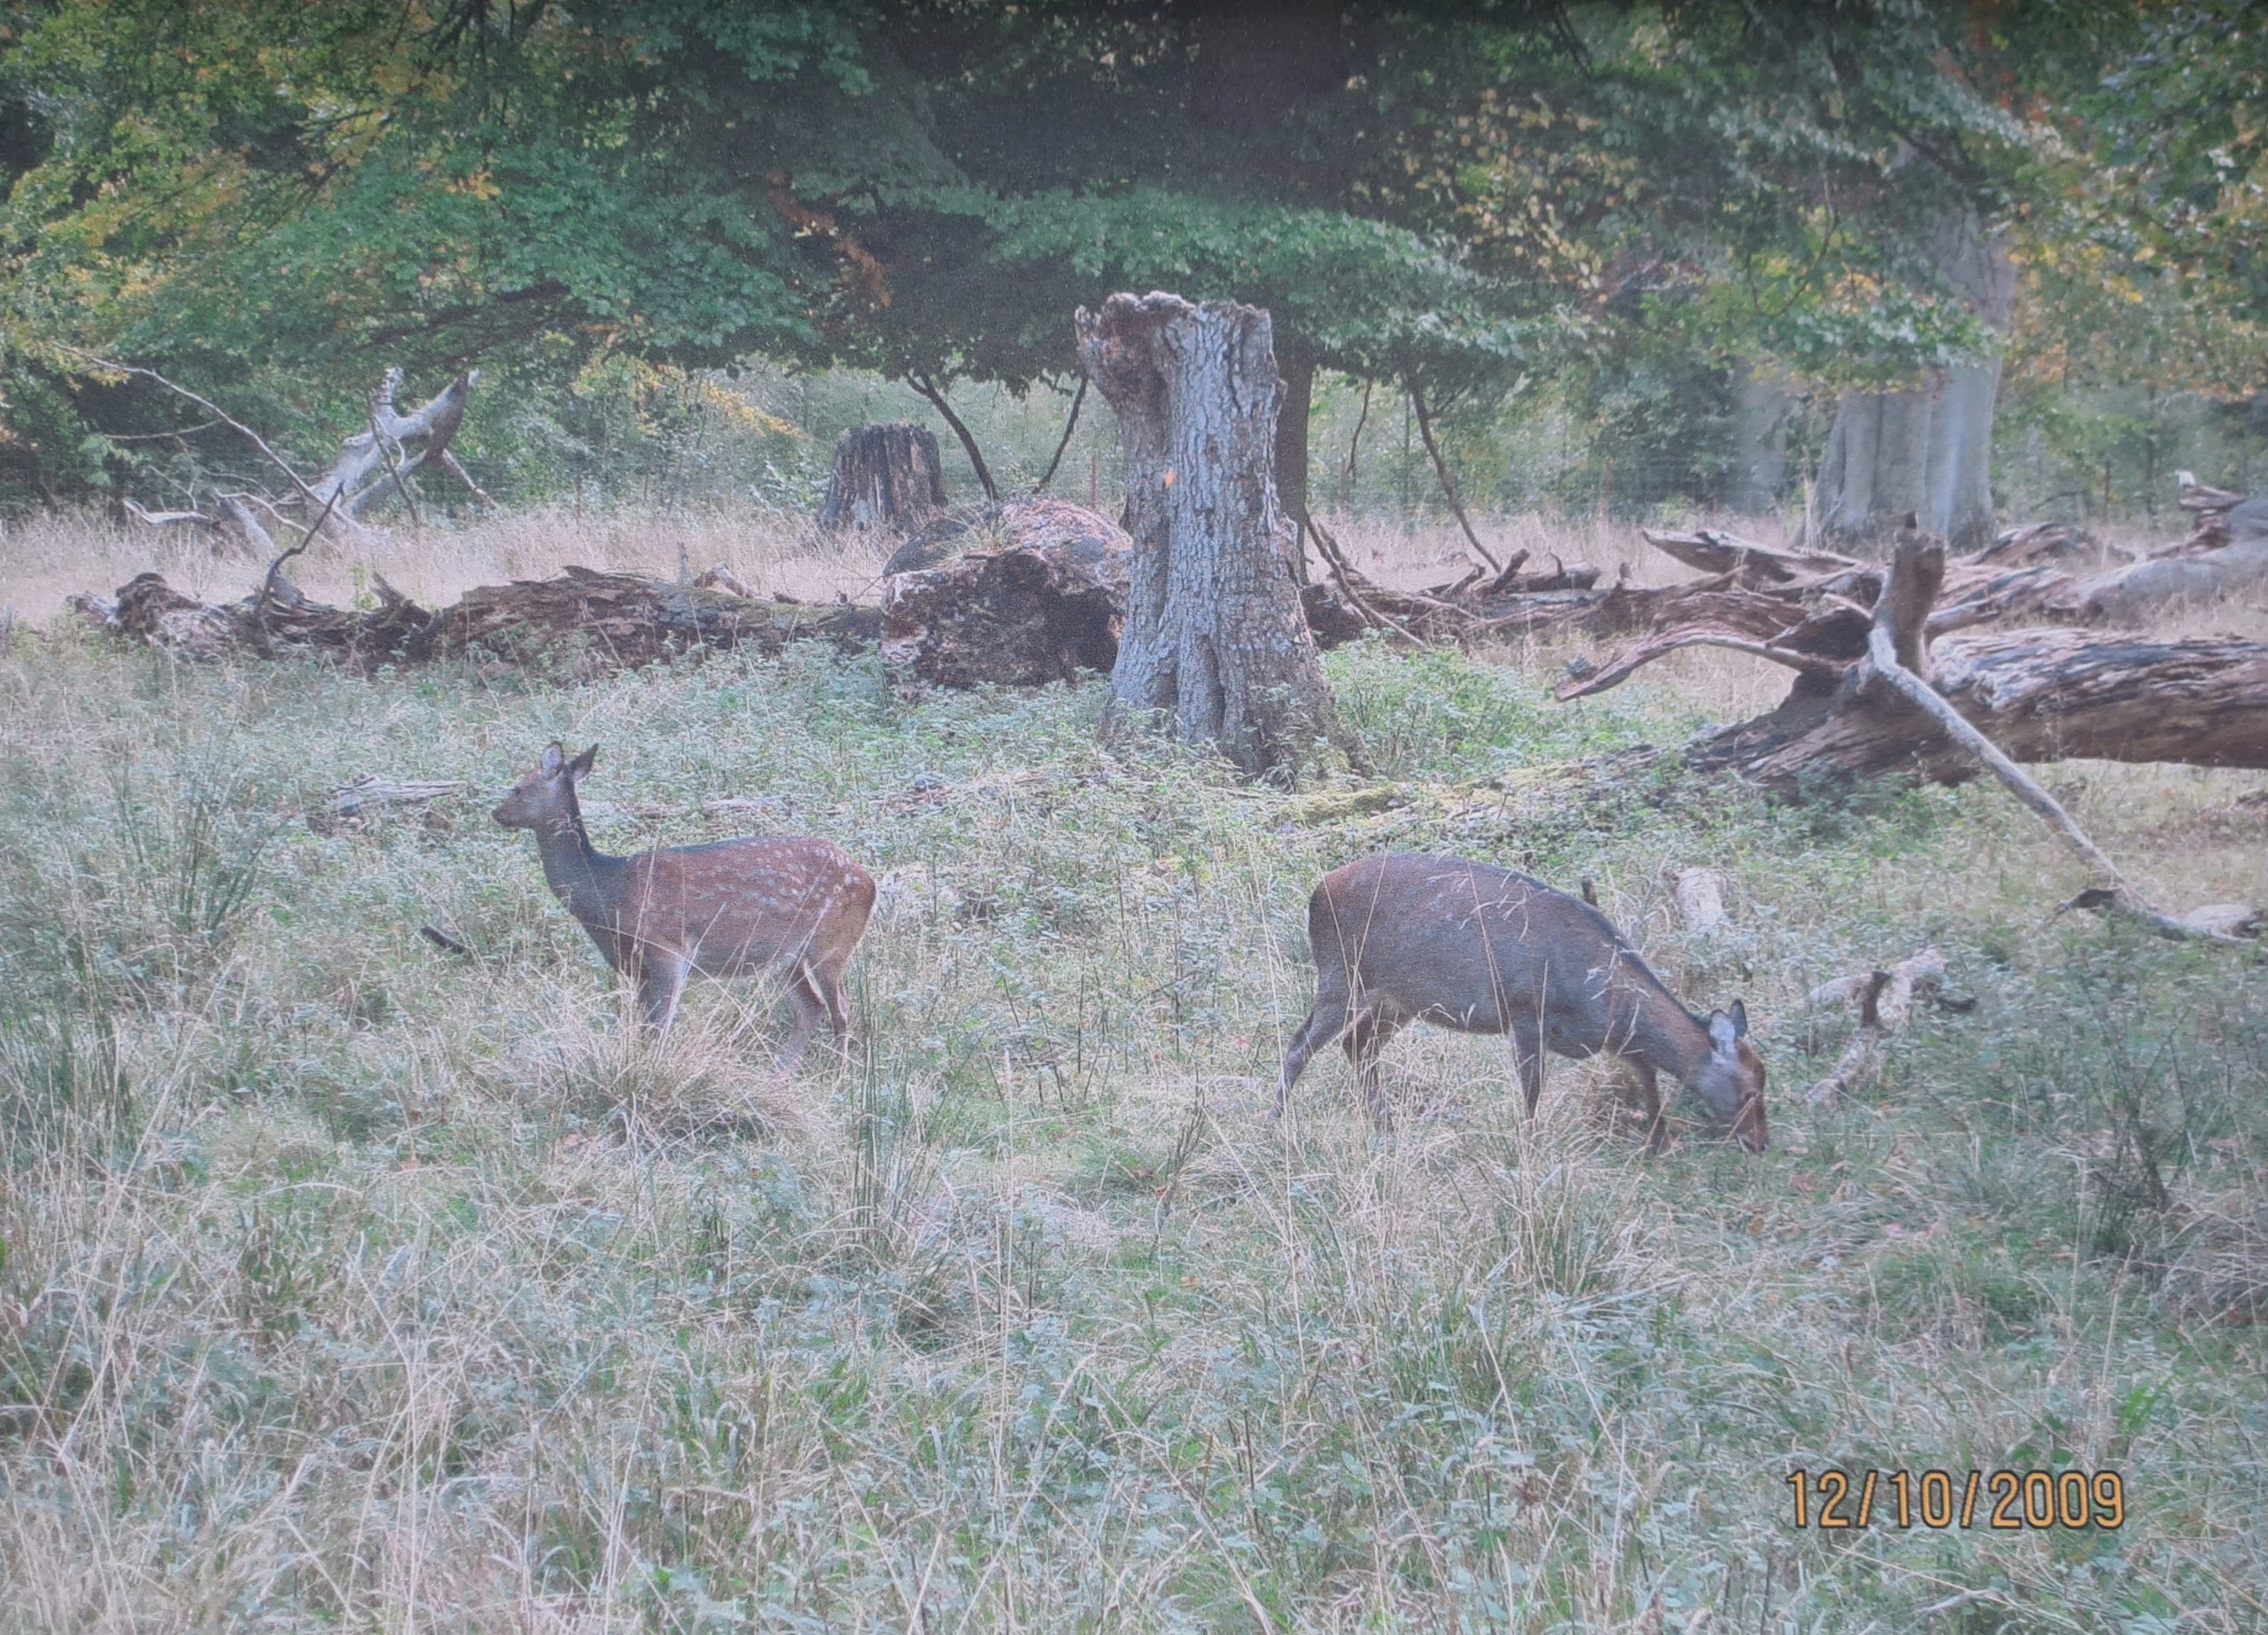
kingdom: Animalia
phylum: Chordata
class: Mammalia
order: Artiodactyla
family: Cervidae
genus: Cervus
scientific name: Cervus nippon
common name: Sika
